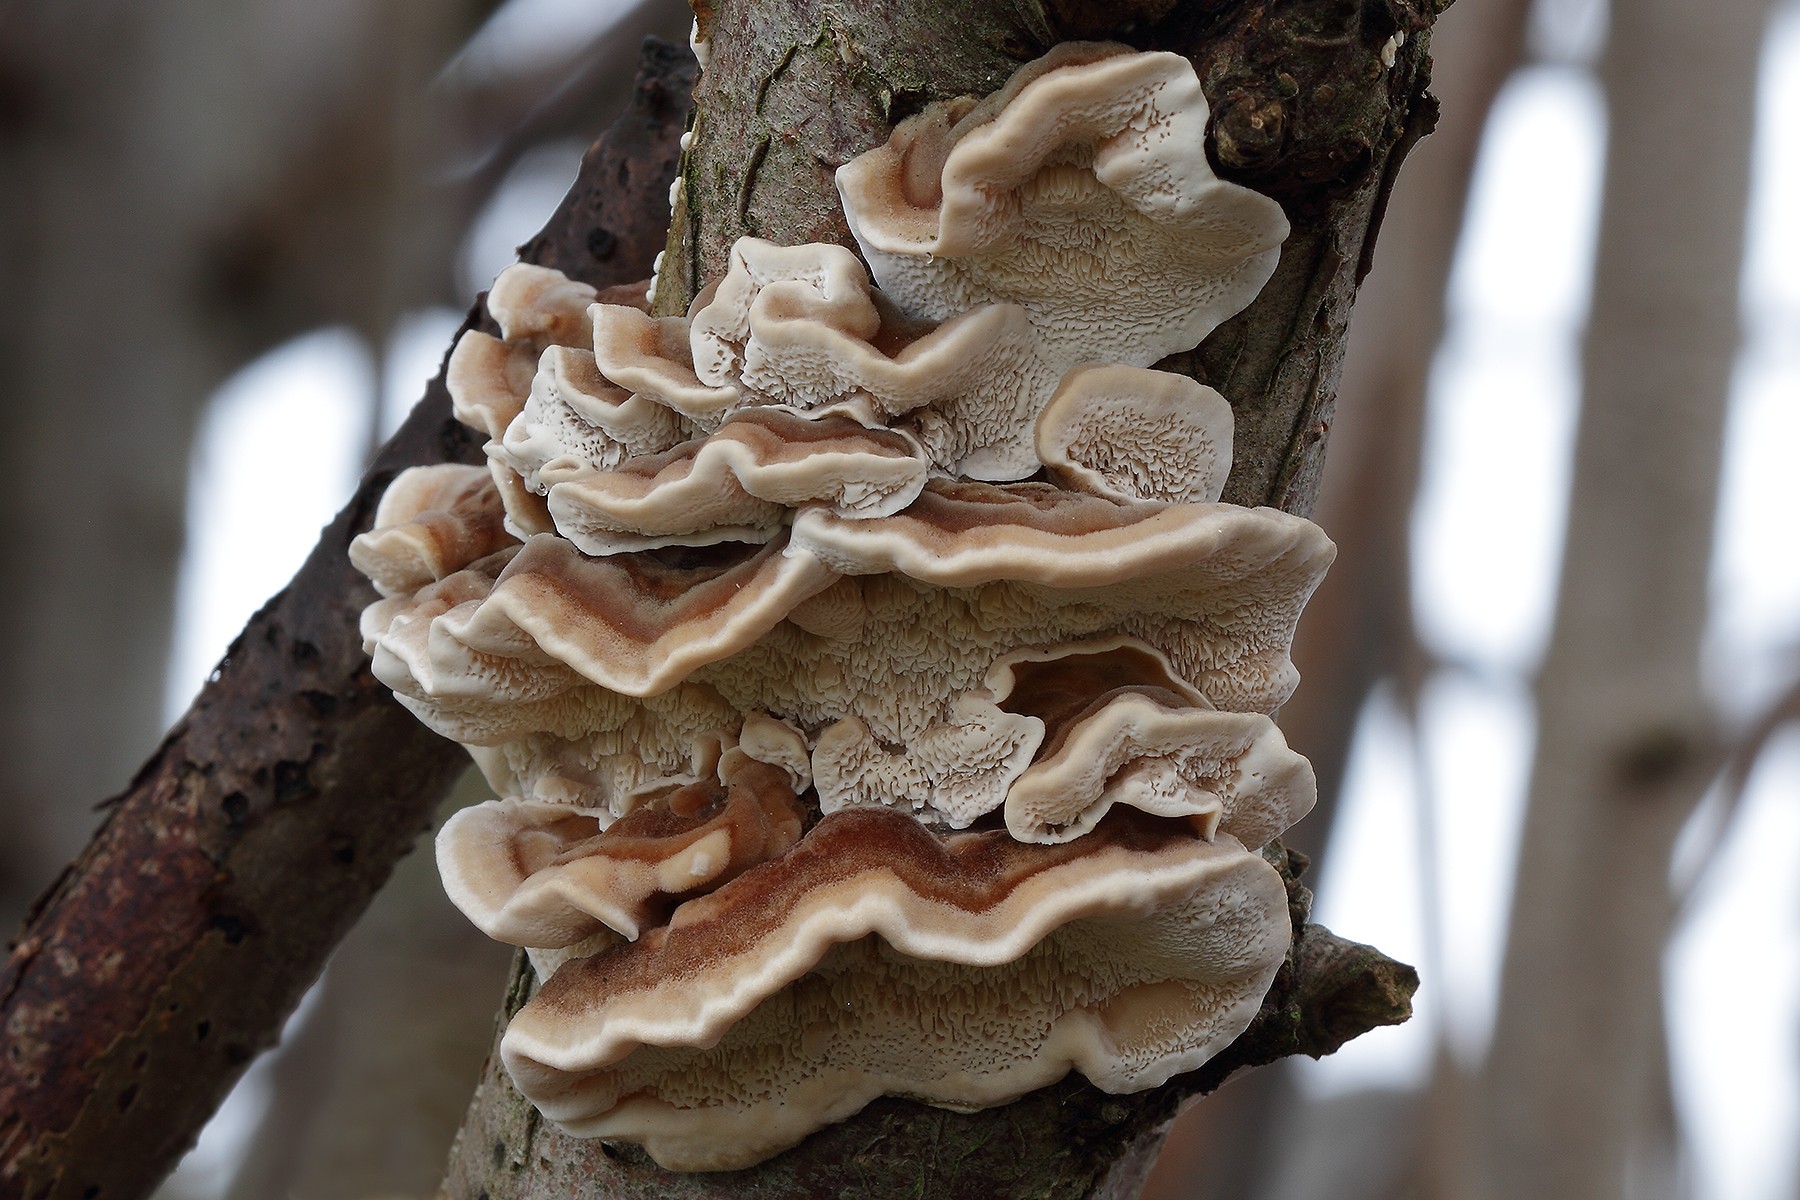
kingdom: Fungi
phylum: Basidiomycota
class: Agaricomycetes
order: Polyporales
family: Polyporaceae
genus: Trametes
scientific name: Trametes ochracea
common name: bæltet læderporesvamp
